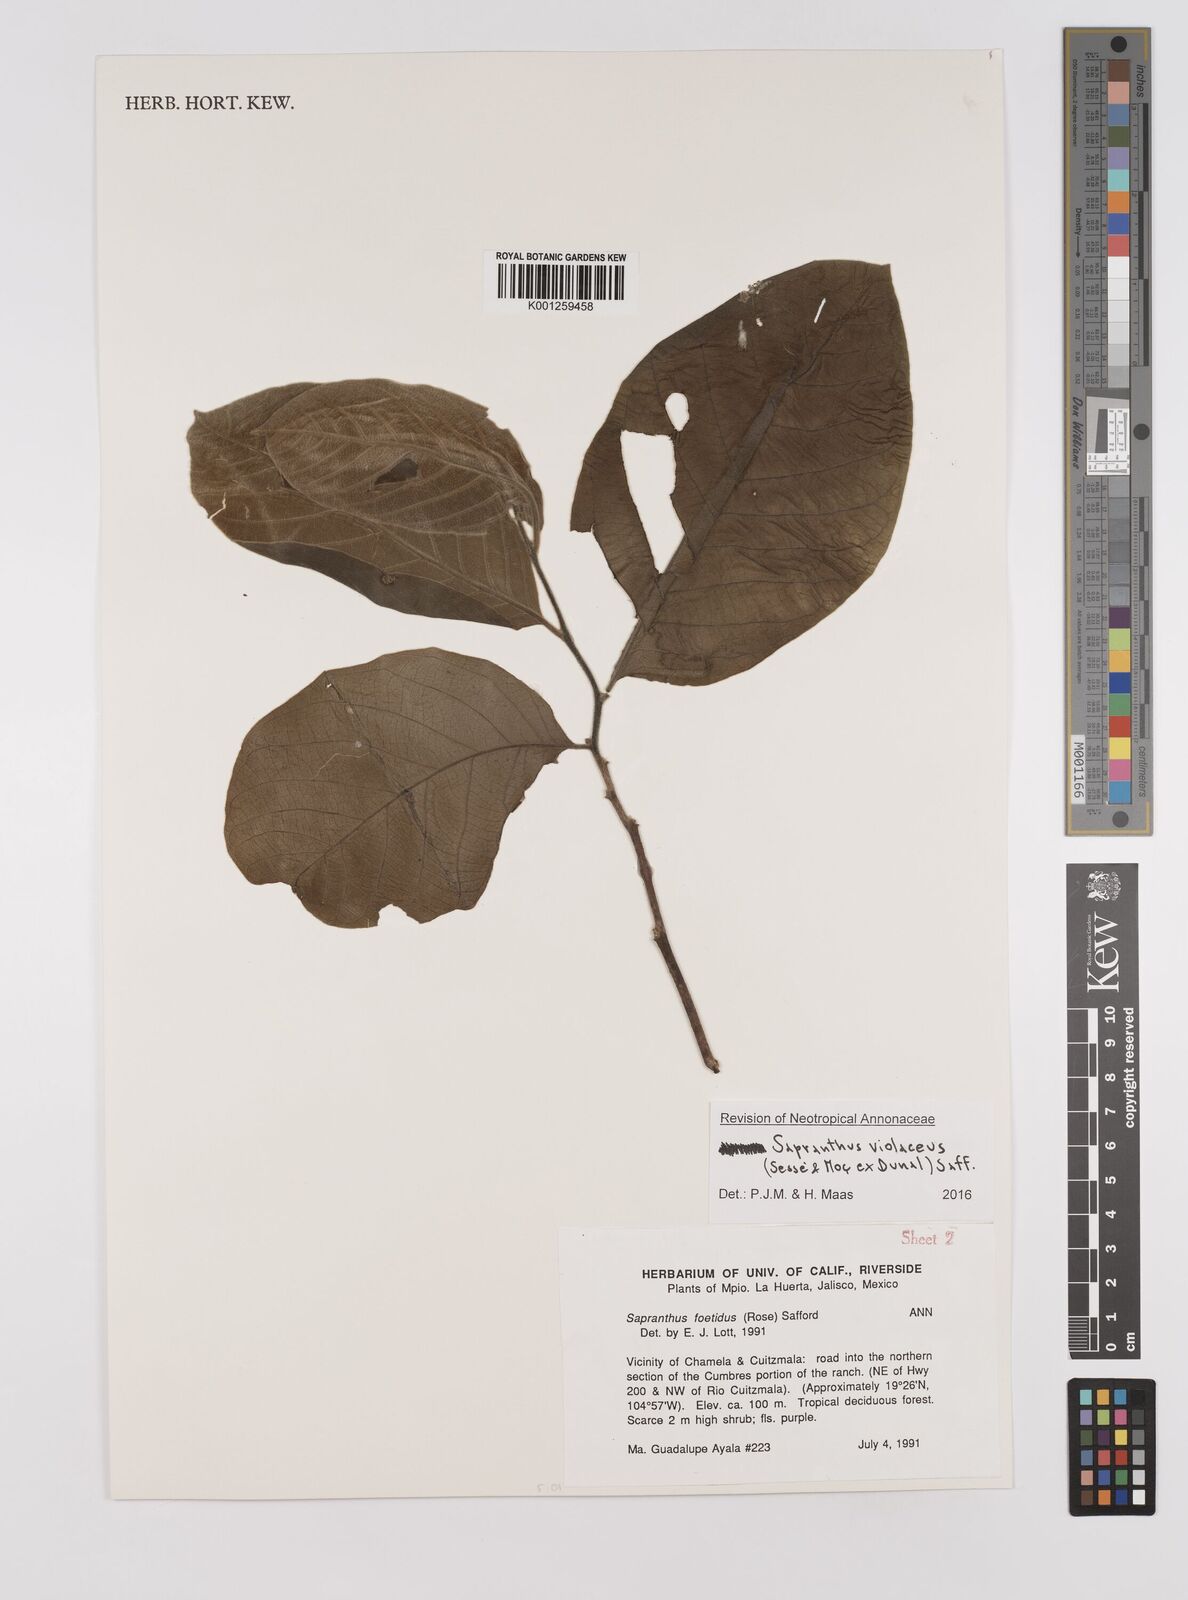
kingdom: Plantae
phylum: Tracheophyta
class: Magnoliopsida
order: Magnoliales
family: Annonaceae
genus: Sapranthus
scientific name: Sapranthus
